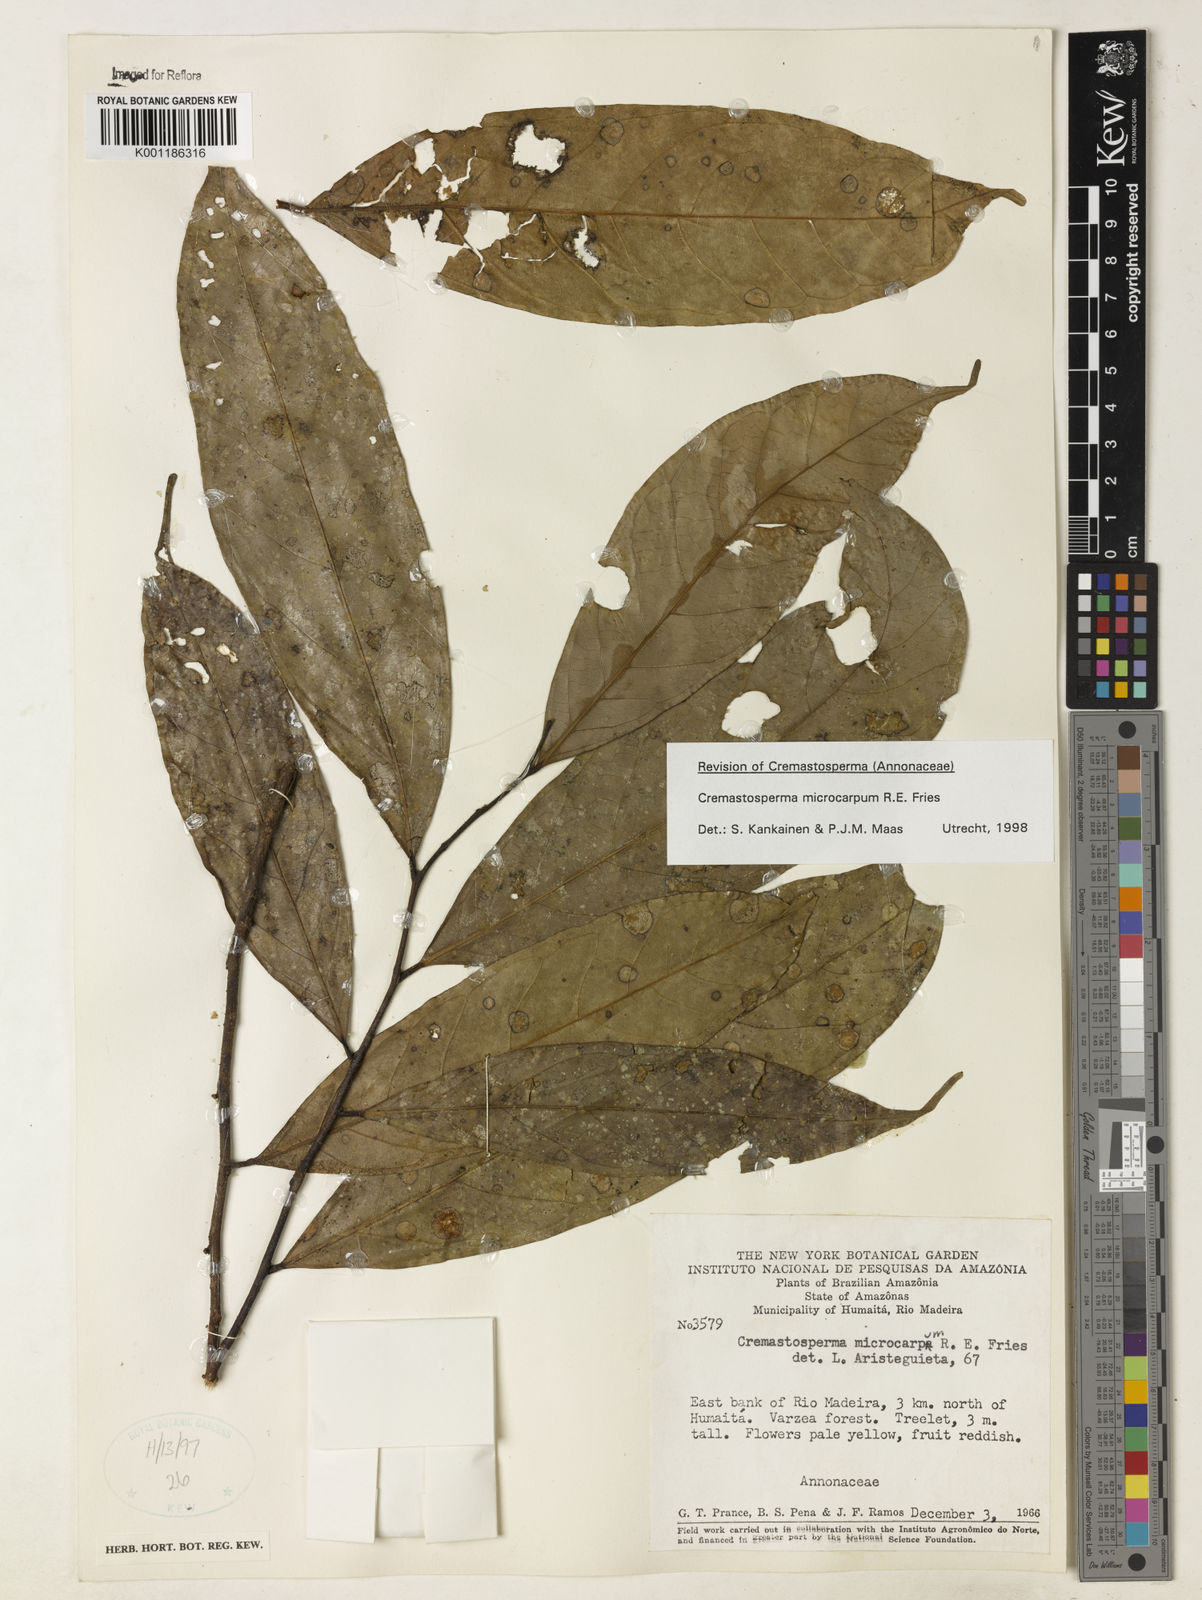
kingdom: Plantae
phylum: Tracheophyta
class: Magnoliopsida
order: Magnoliales
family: Annonaceae
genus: Cremastosperma
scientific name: Cremastosperma microcarpum
